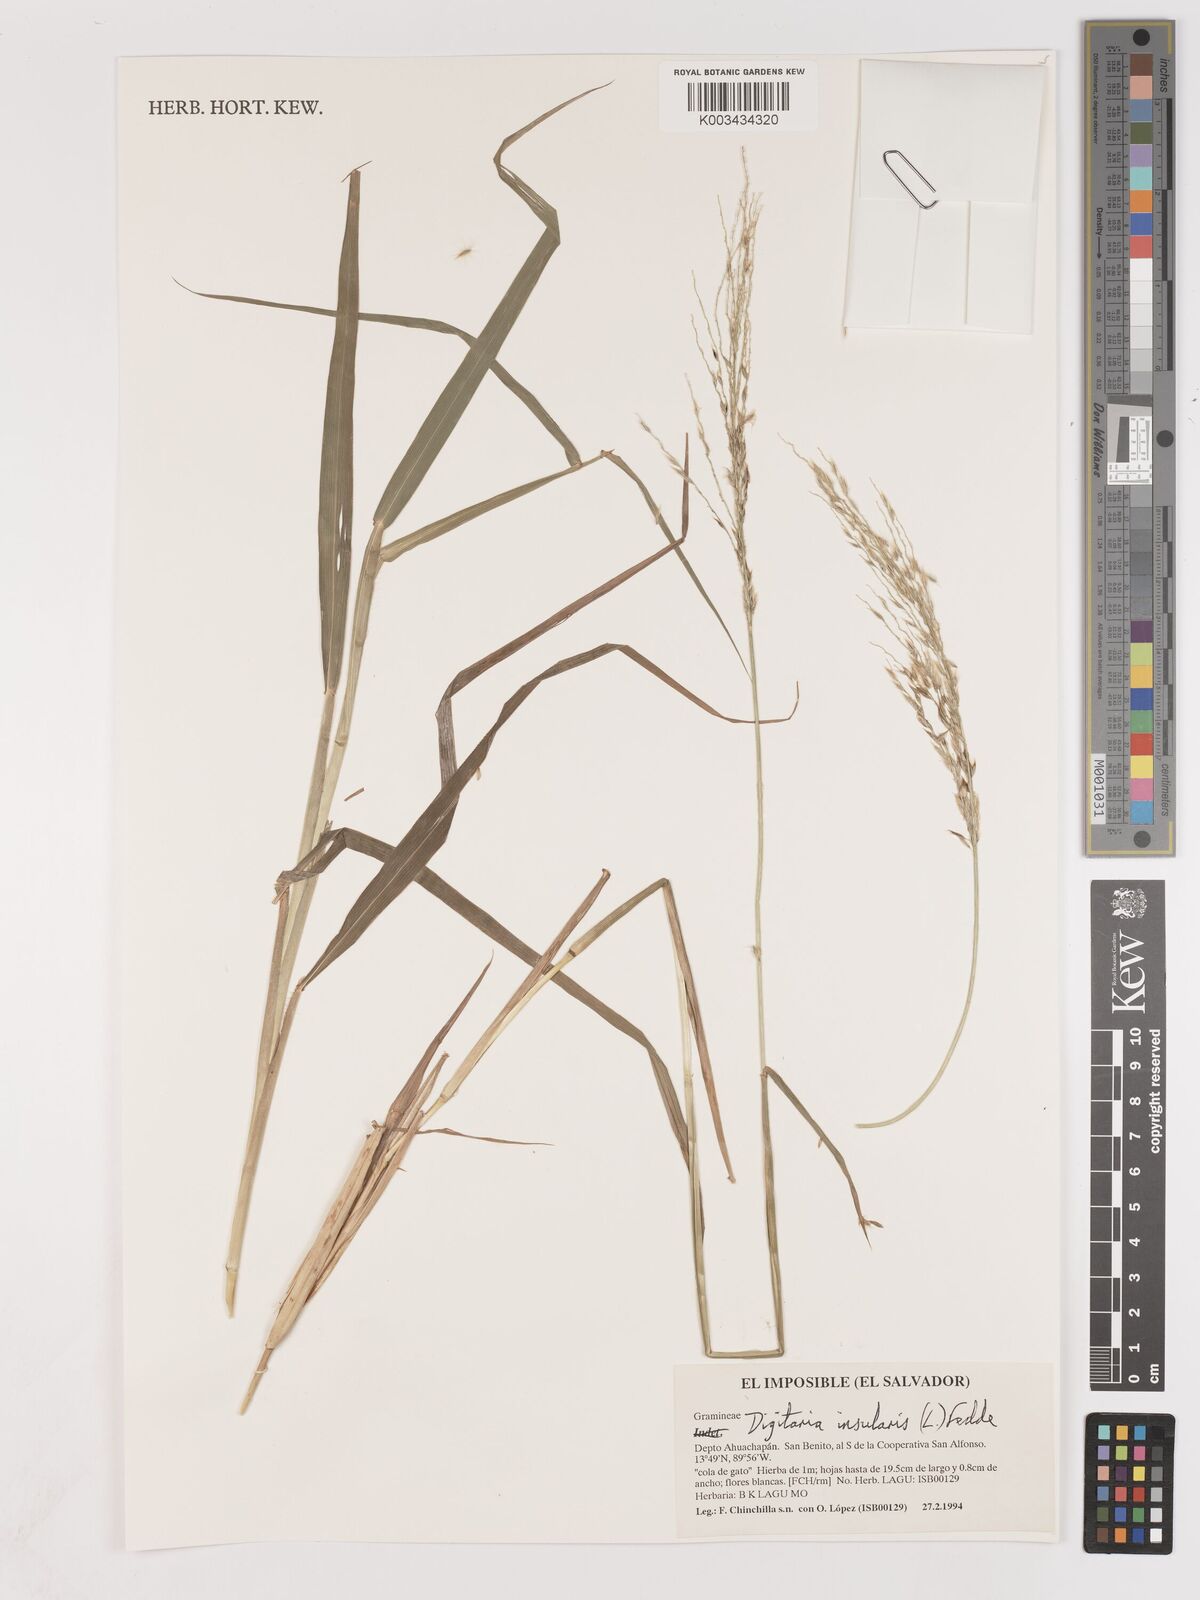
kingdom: Plantae
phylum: Tracheophyta
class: Liliopsida
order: Poales
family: Poaceae
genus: Digitaria
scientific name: Digitaria insularis
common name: Sourgrass
